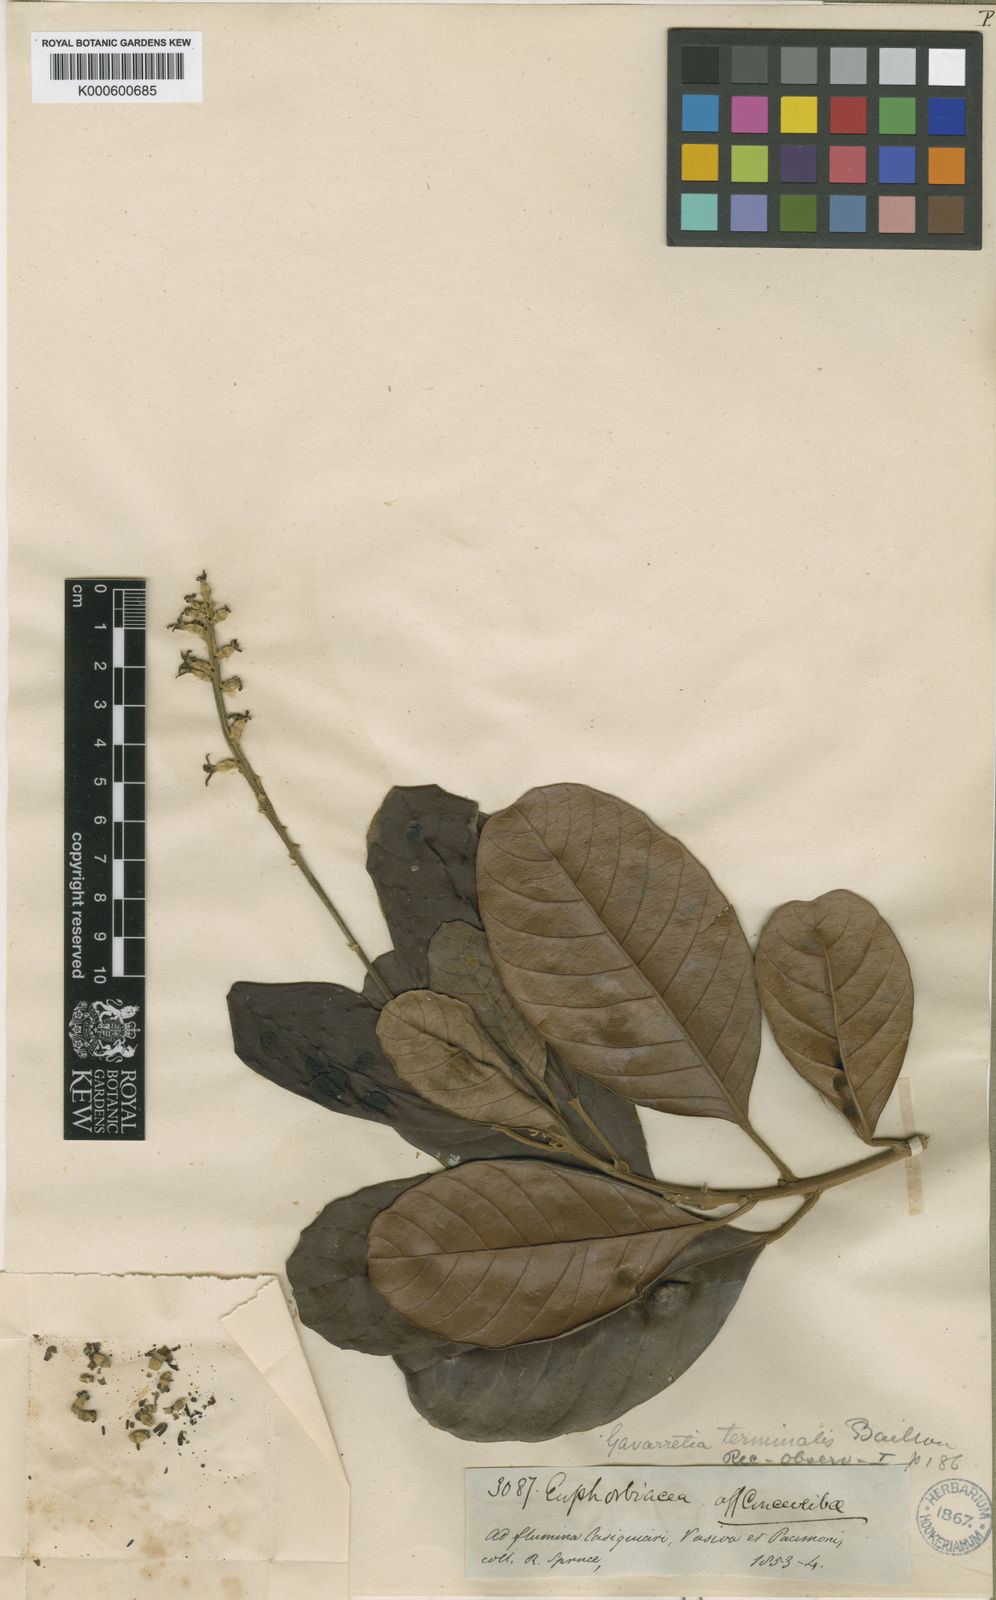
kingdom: Plantae
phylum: Tracheophyta
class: Magnoliopsida
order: Malpighiales
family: Euphorbiaceae
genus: Conceveiba
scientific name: Conceveiba
